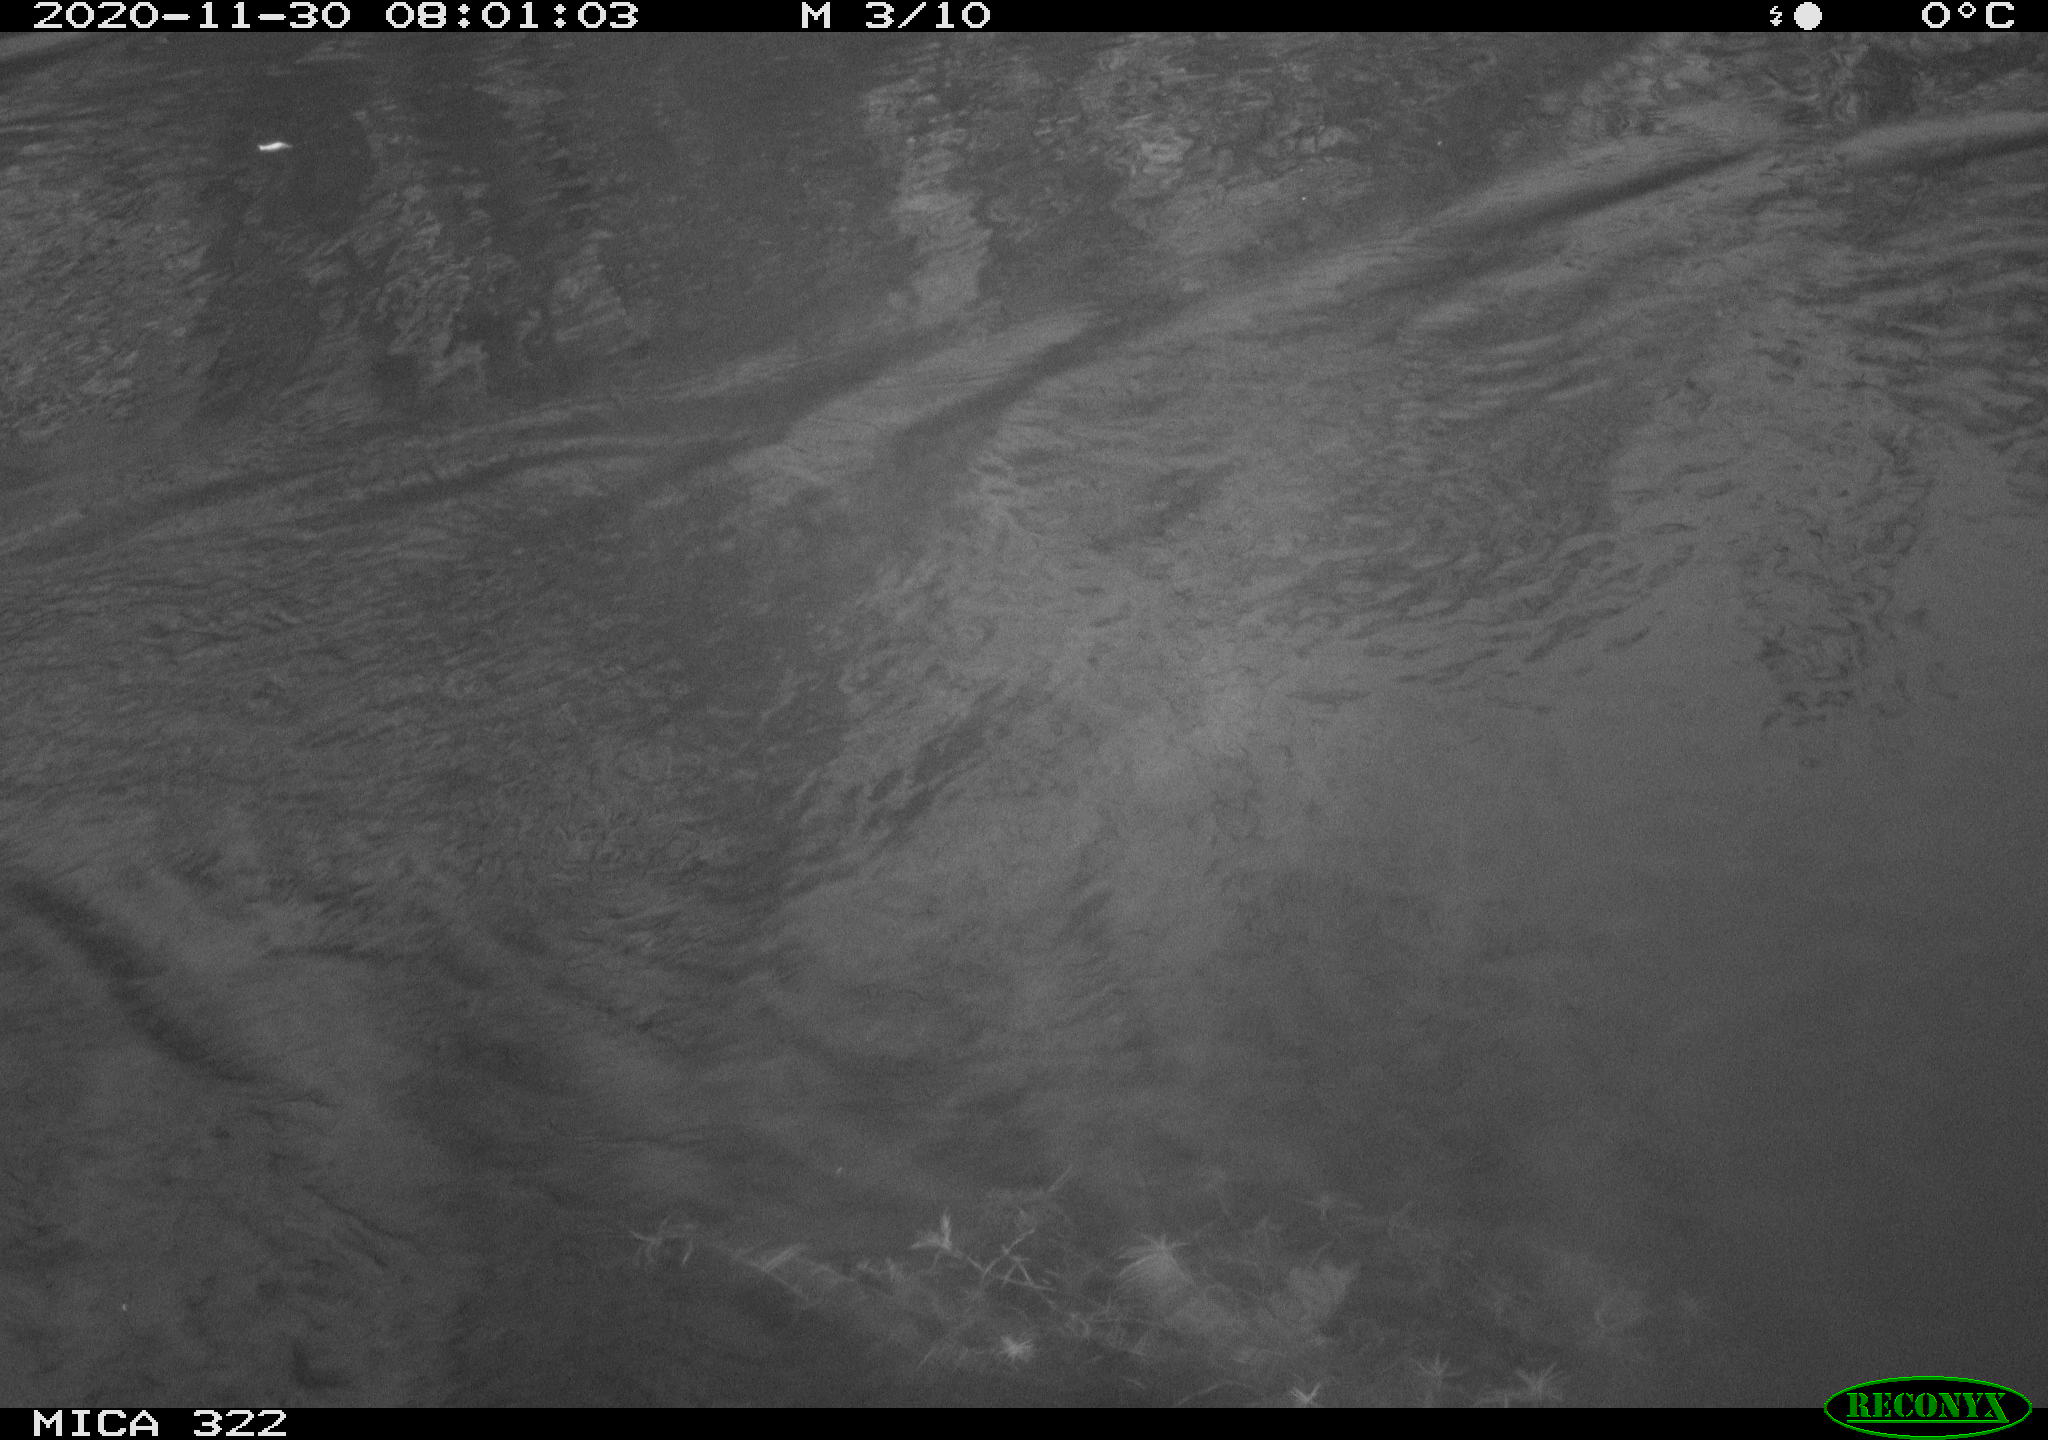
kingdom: Animalia
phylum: Chordata
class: Aves
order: Gruiformes
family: Rallidae
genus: Fulica
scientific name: Fulica atra
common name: Eurasian coot
